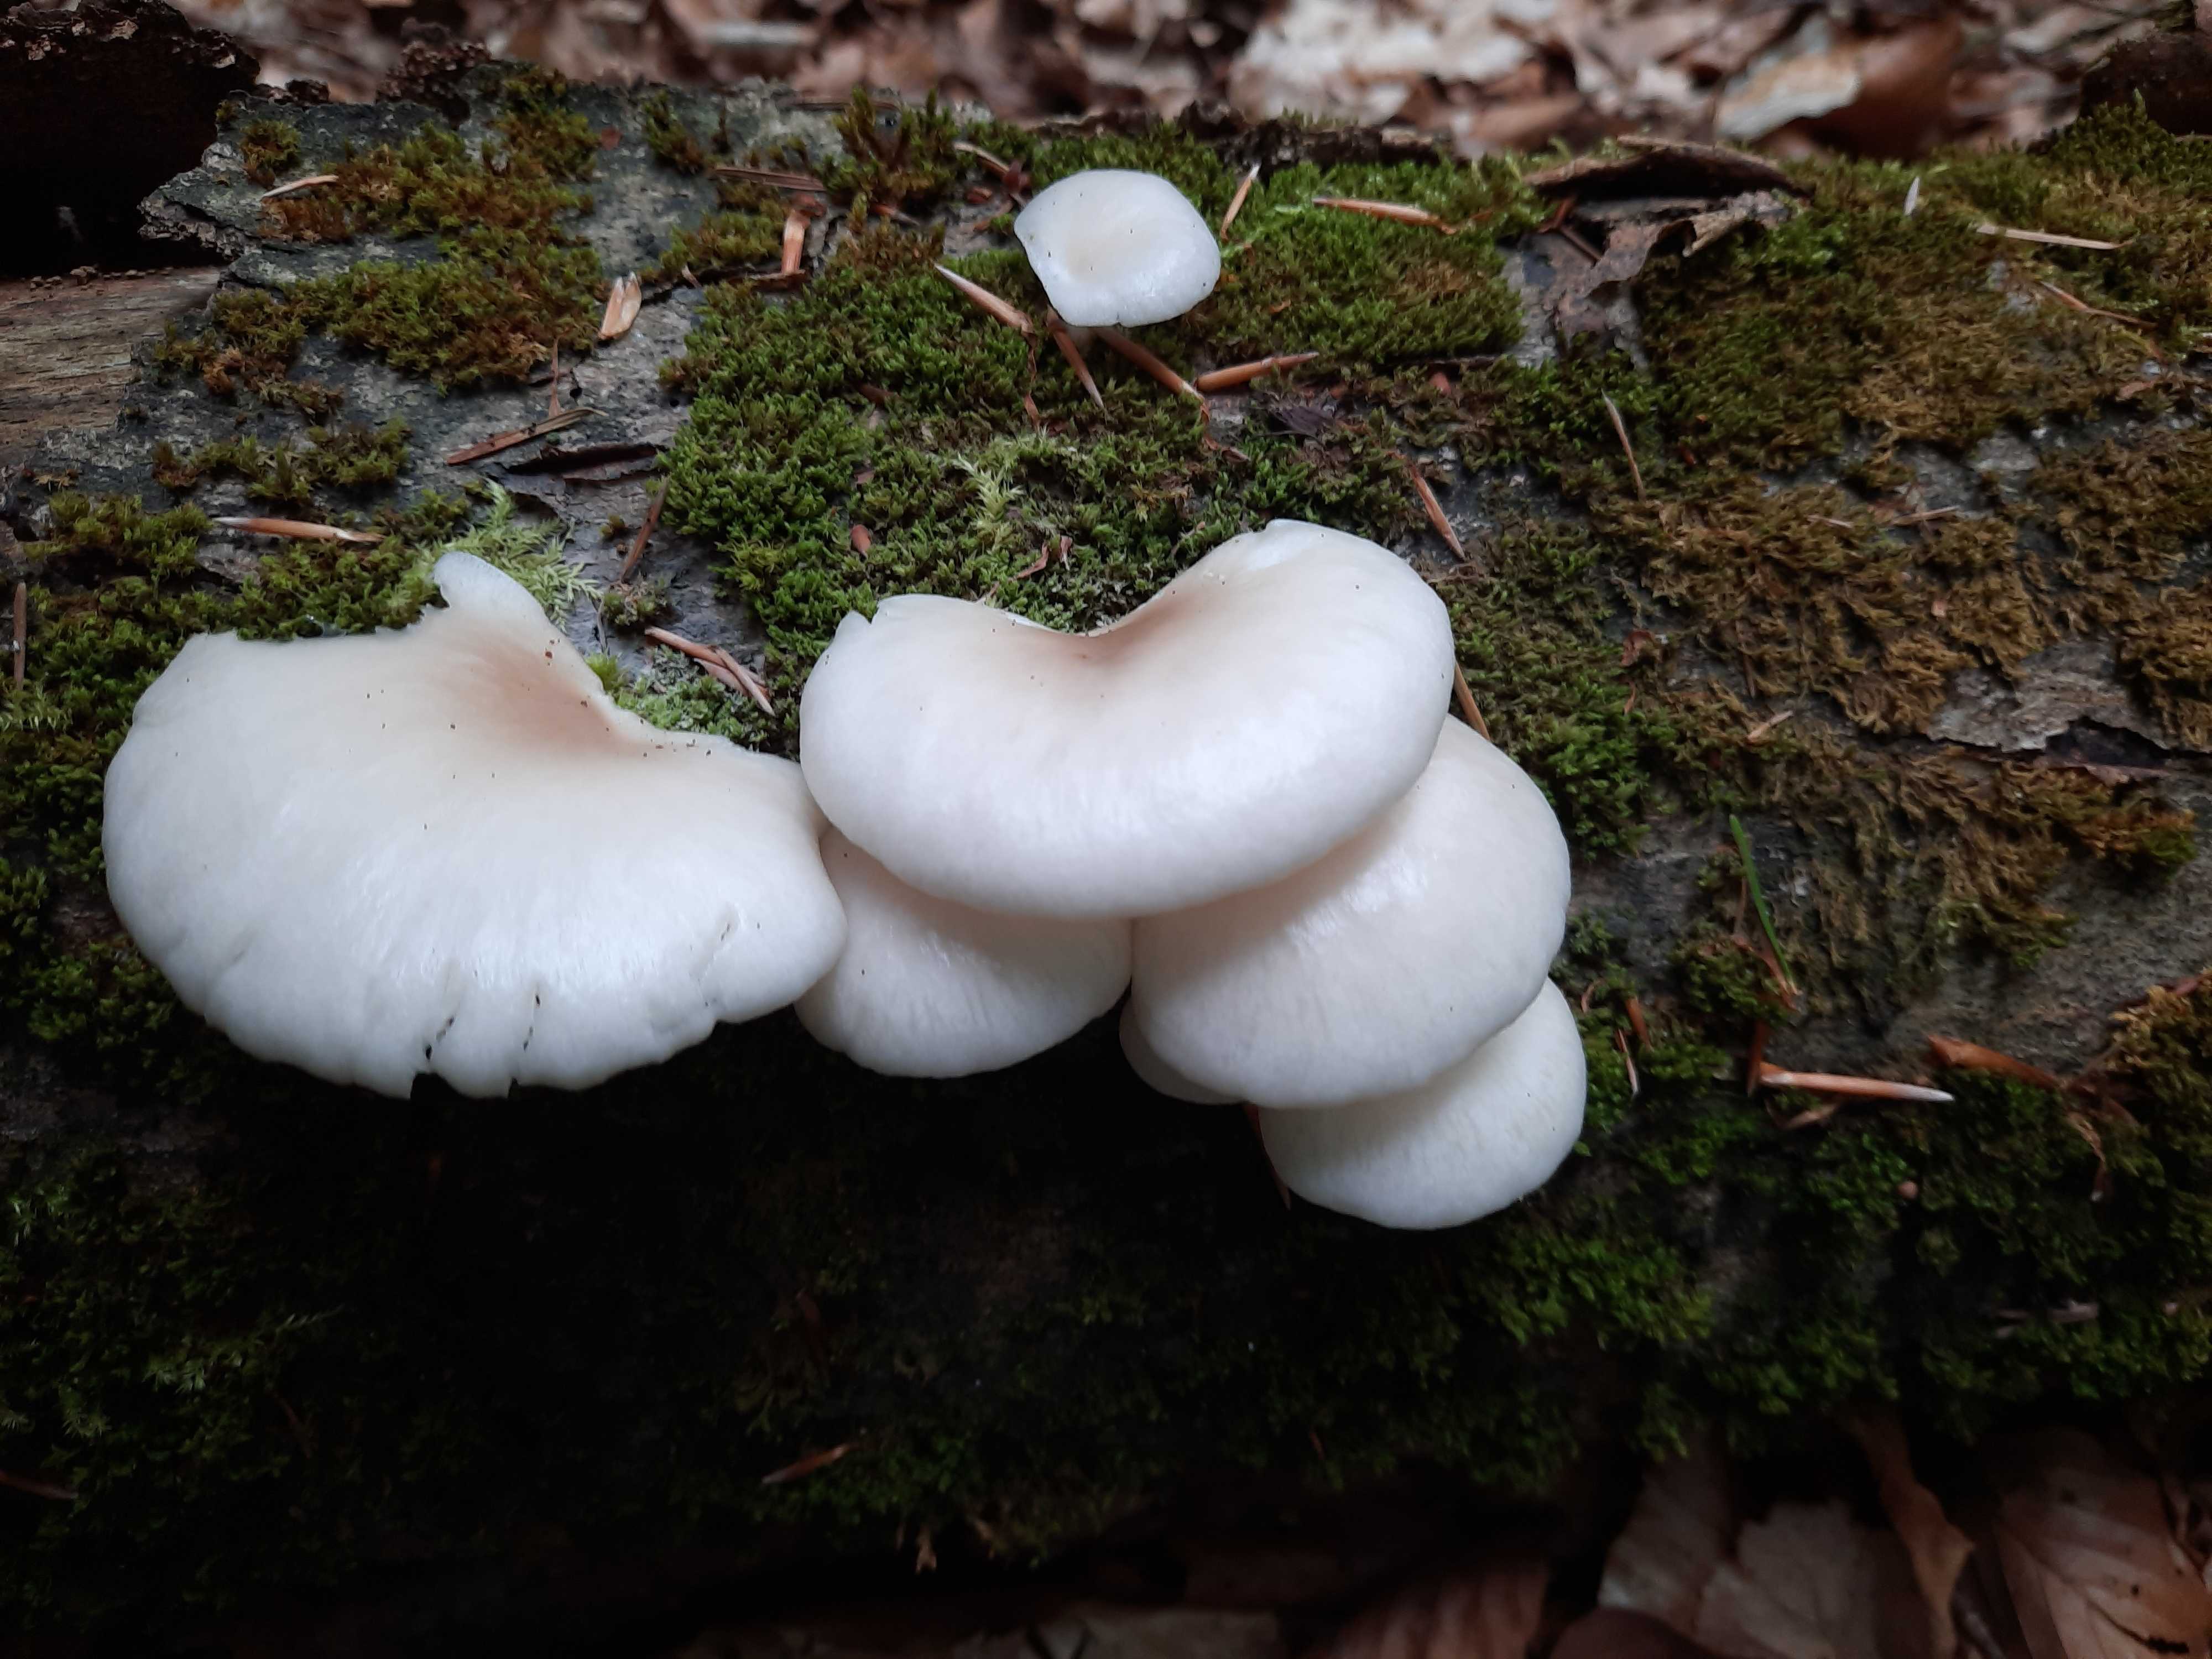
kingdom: Fungi
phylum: Basidiomycota
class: Agaricomycetes
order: Agaricales
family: Pleurotaceae
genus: Pleurotus
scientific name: Pleurotus pulmonarius
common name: sommer-østershat
